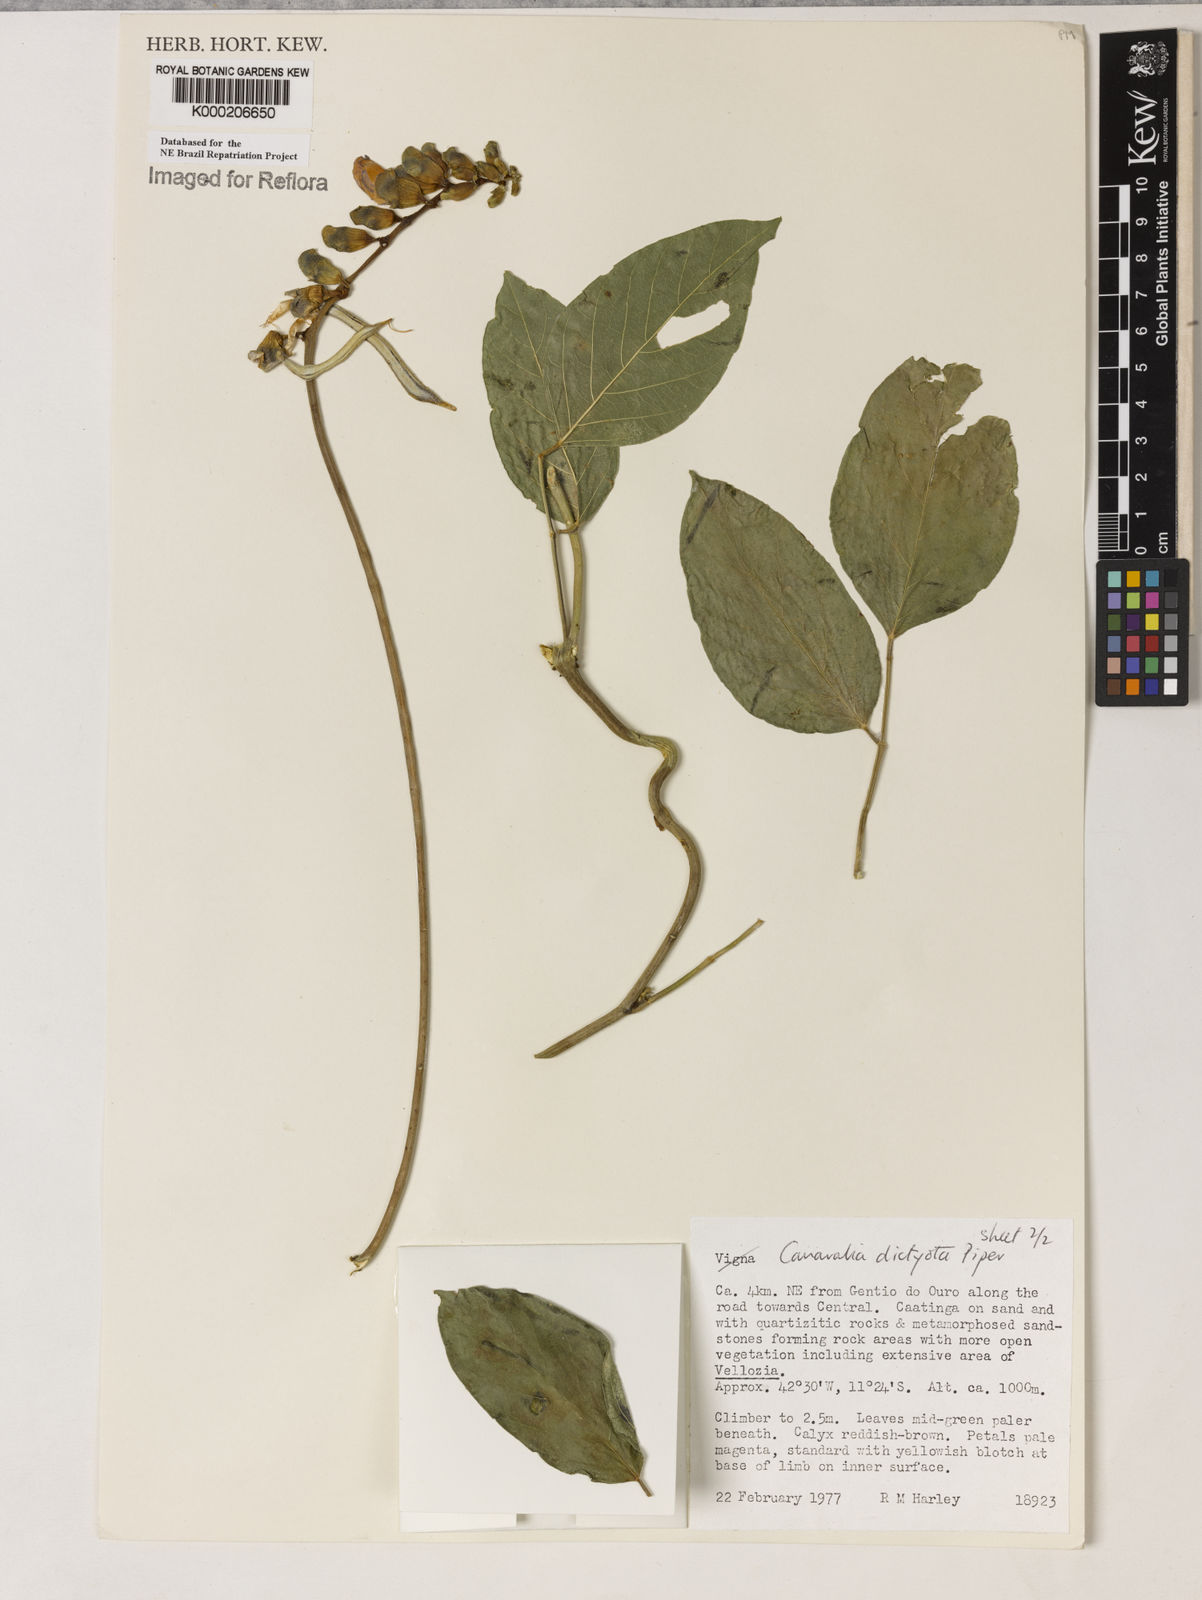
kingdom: Plantae
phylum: Tracheophyta
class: Magnoliopsida
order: Fabales
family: Fabaceae
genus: Canavalia
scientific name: Canavalia brasiliensis
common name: Barbicou-bean
